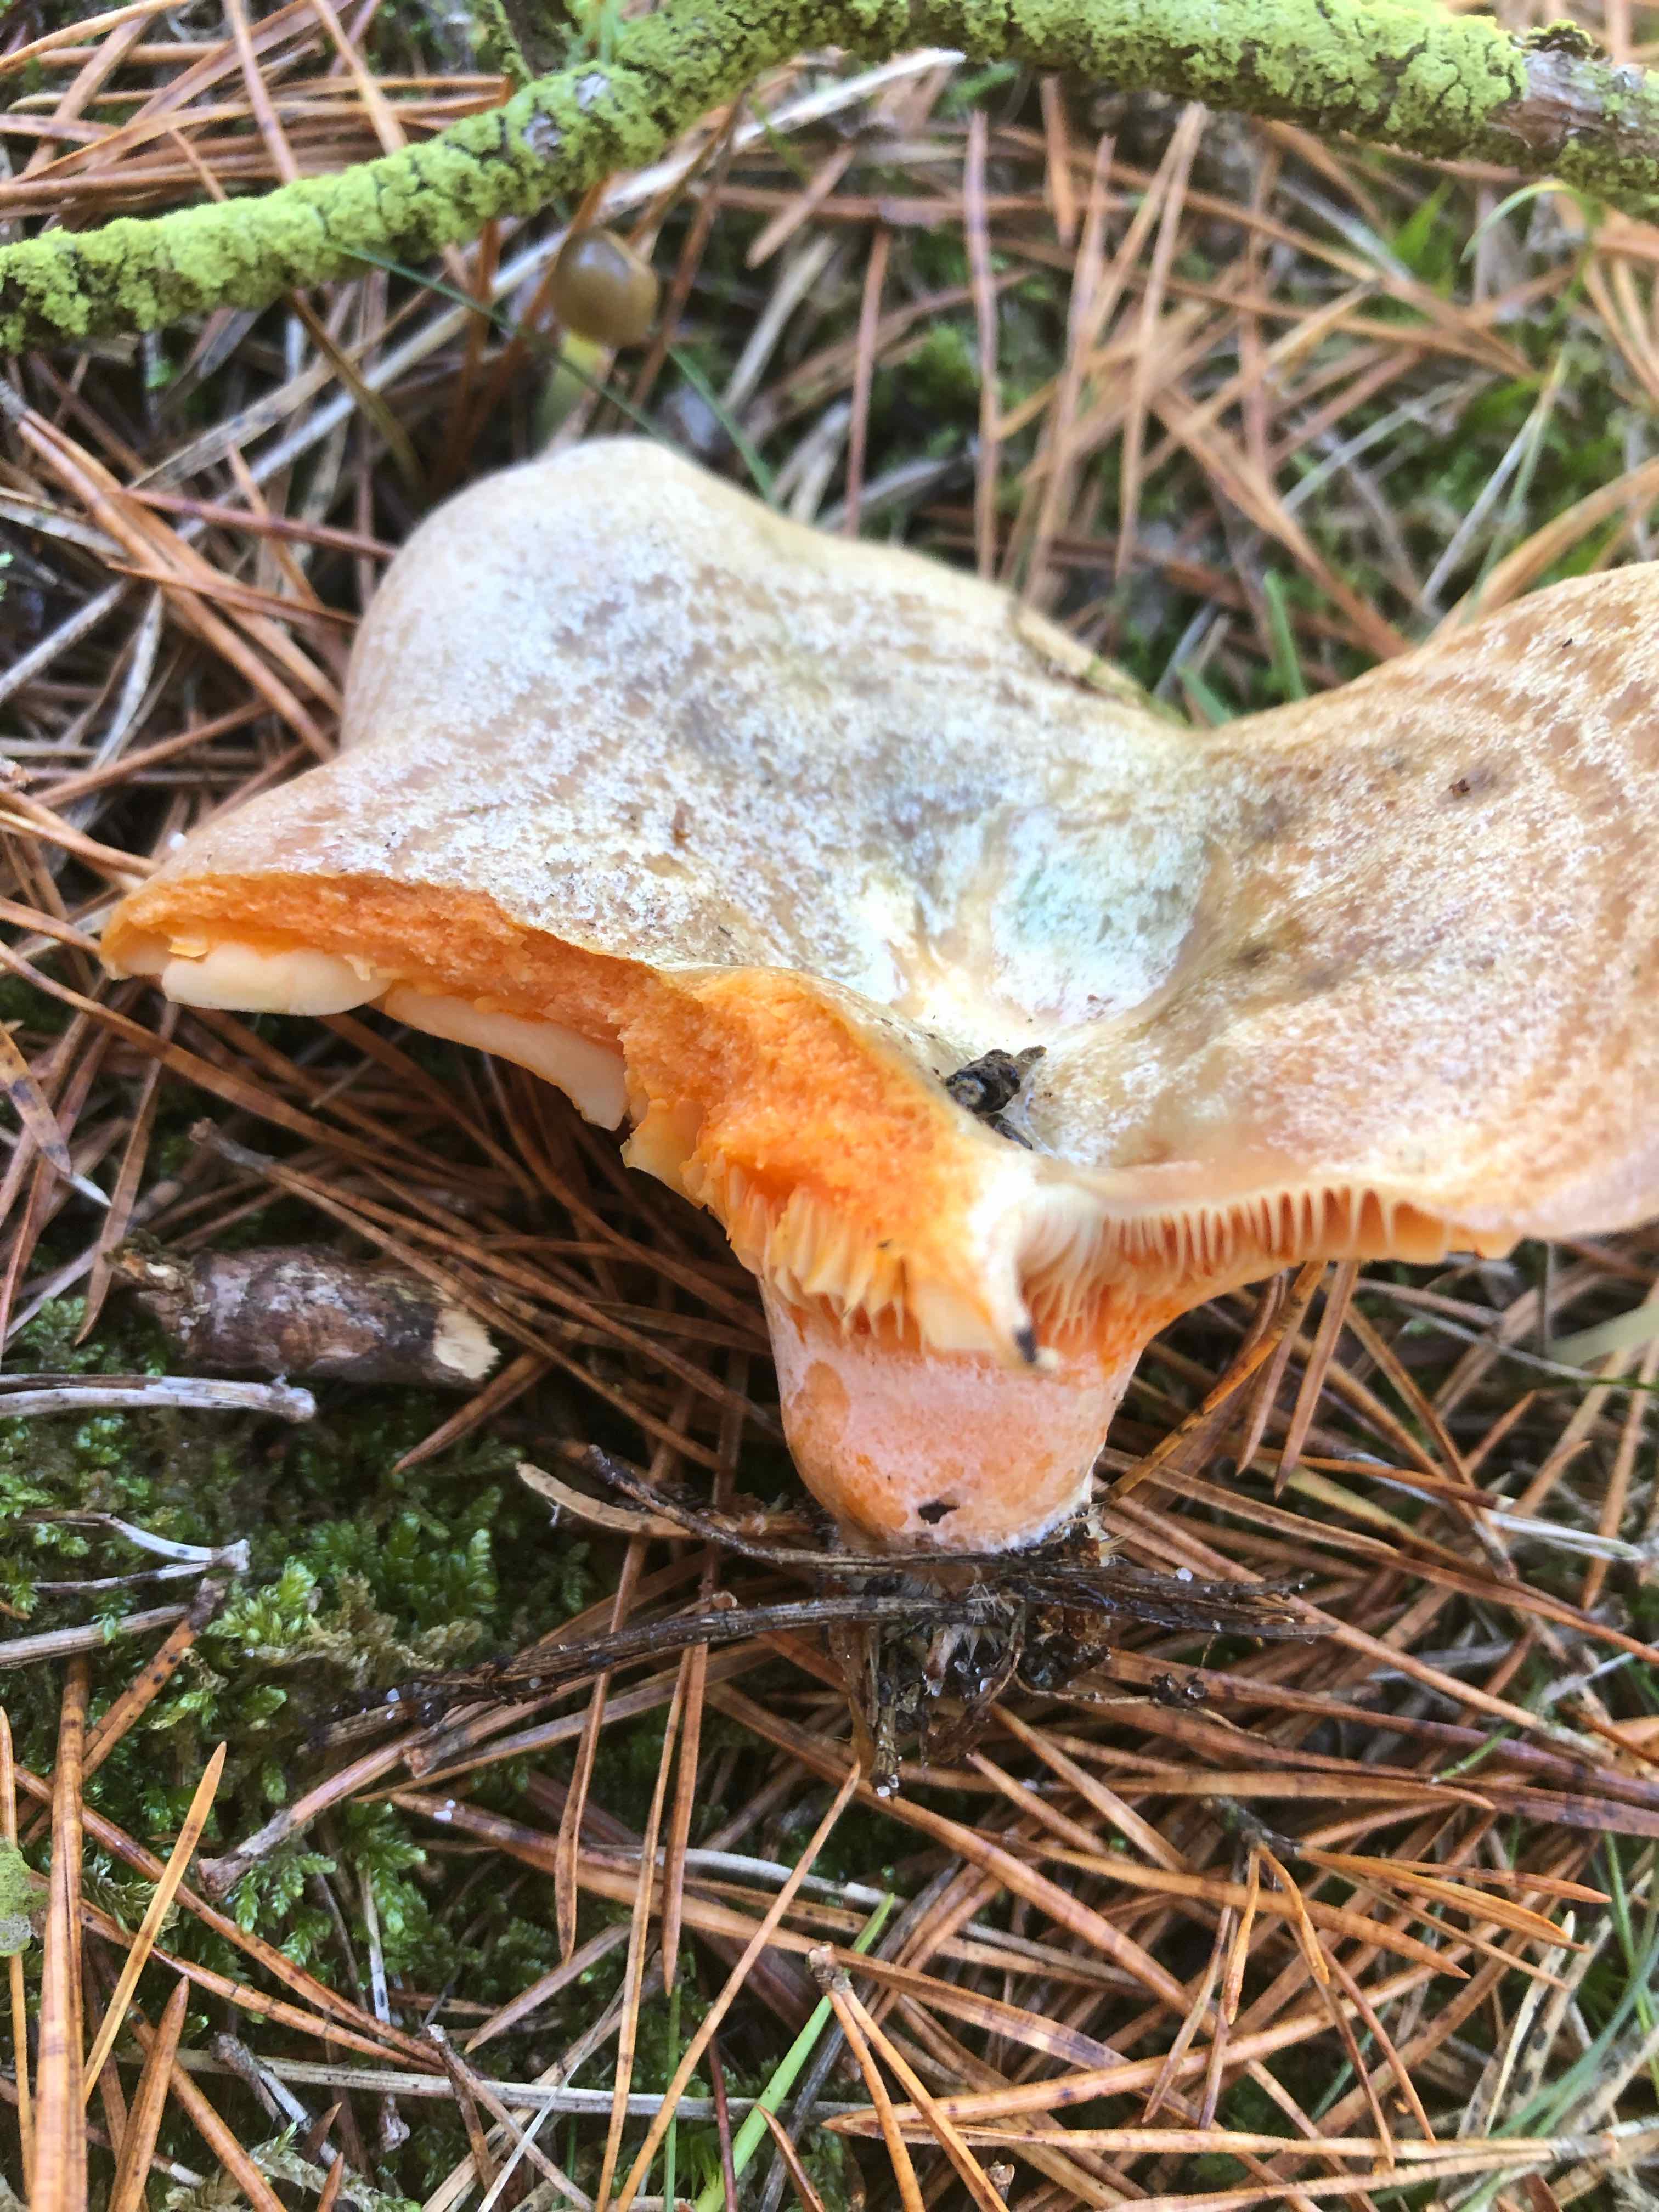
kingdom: Fungi
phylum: Basidiomycota
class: Agaricomycetes
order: Russulales
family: Russulaceae
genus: Lactarius
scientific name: Lactarius deliciosus
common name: velsmagende mælkehat
